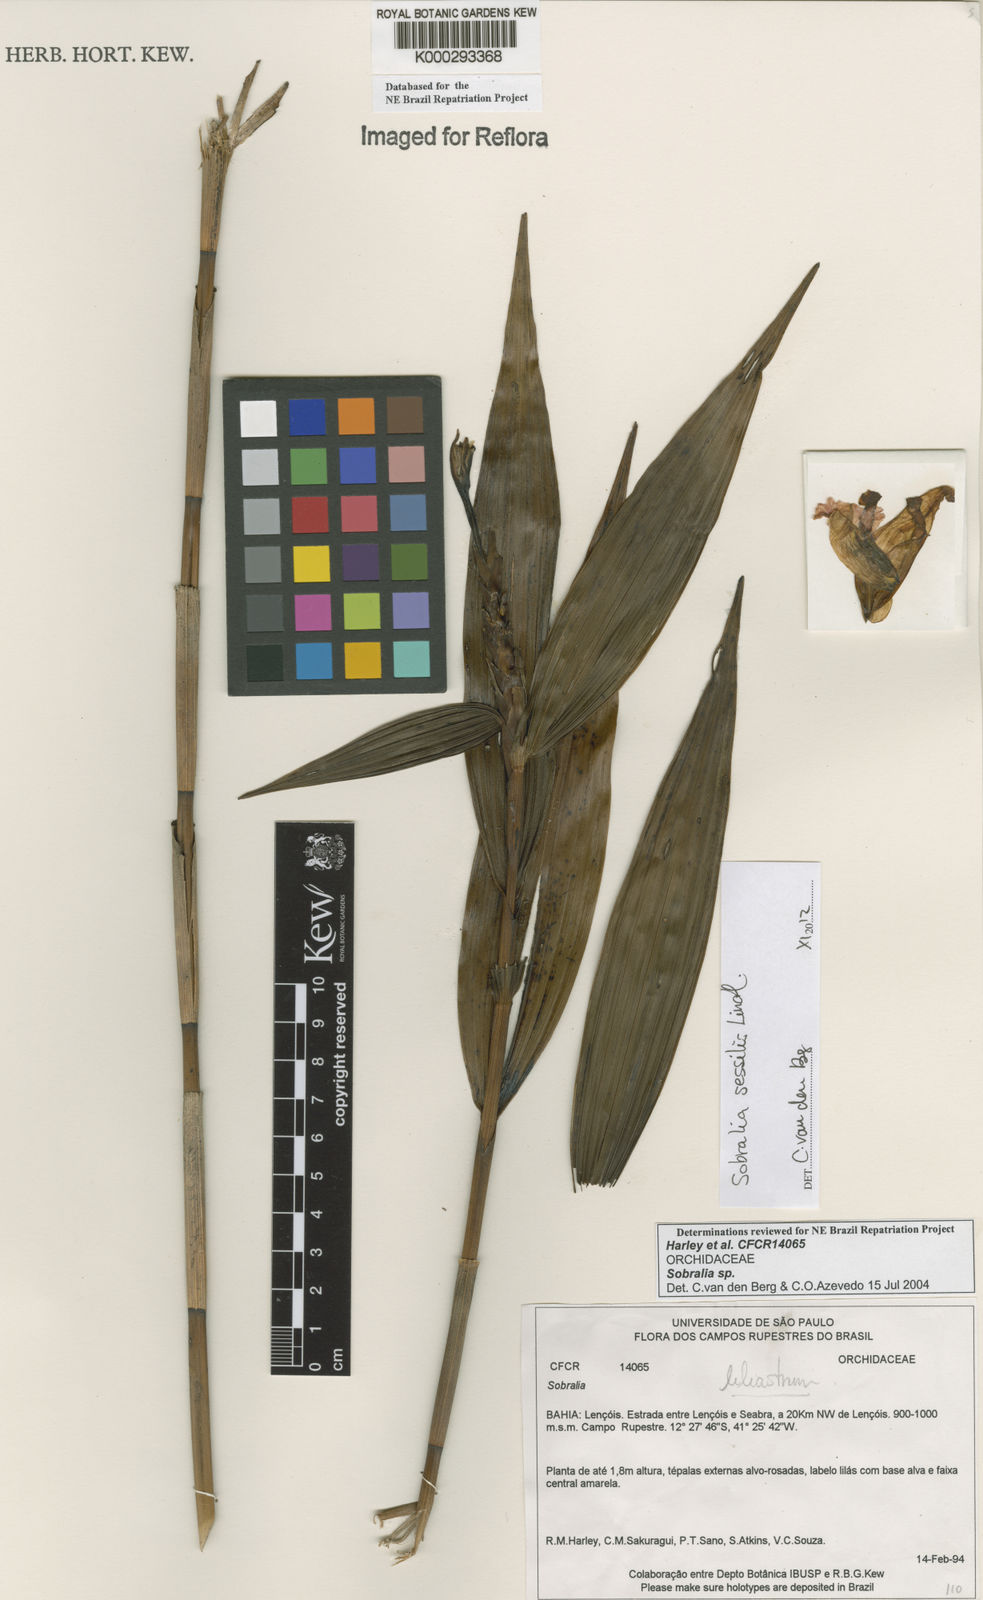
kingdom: Plantae
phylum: Tracheophyta
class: Liliopsida
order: Asparagales
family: Orchidaceae
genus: Sobralia
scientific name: Sobralia
